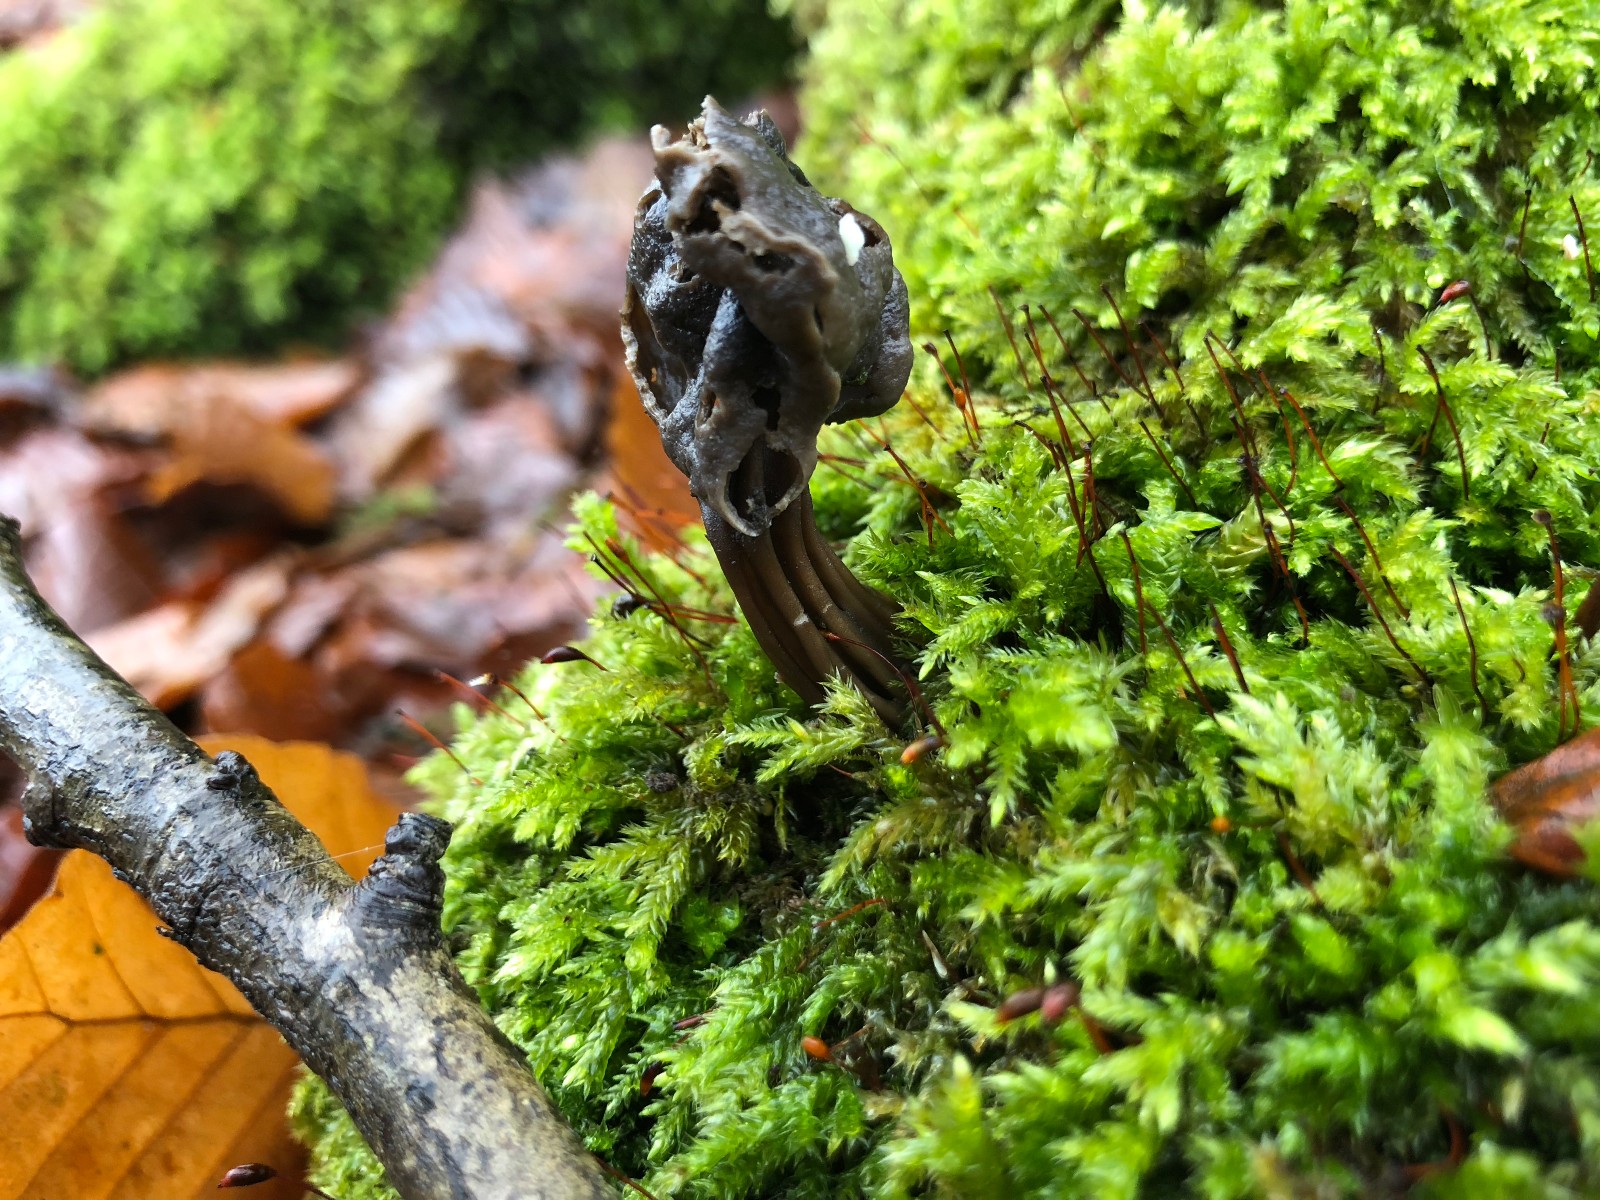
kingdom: Fungi
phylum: Ascomycota
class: Pezizomycetes
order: Pezizales
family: Helvellaceae
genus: Helvella
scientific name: Helvella lacunosa
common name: grubet foldhat
